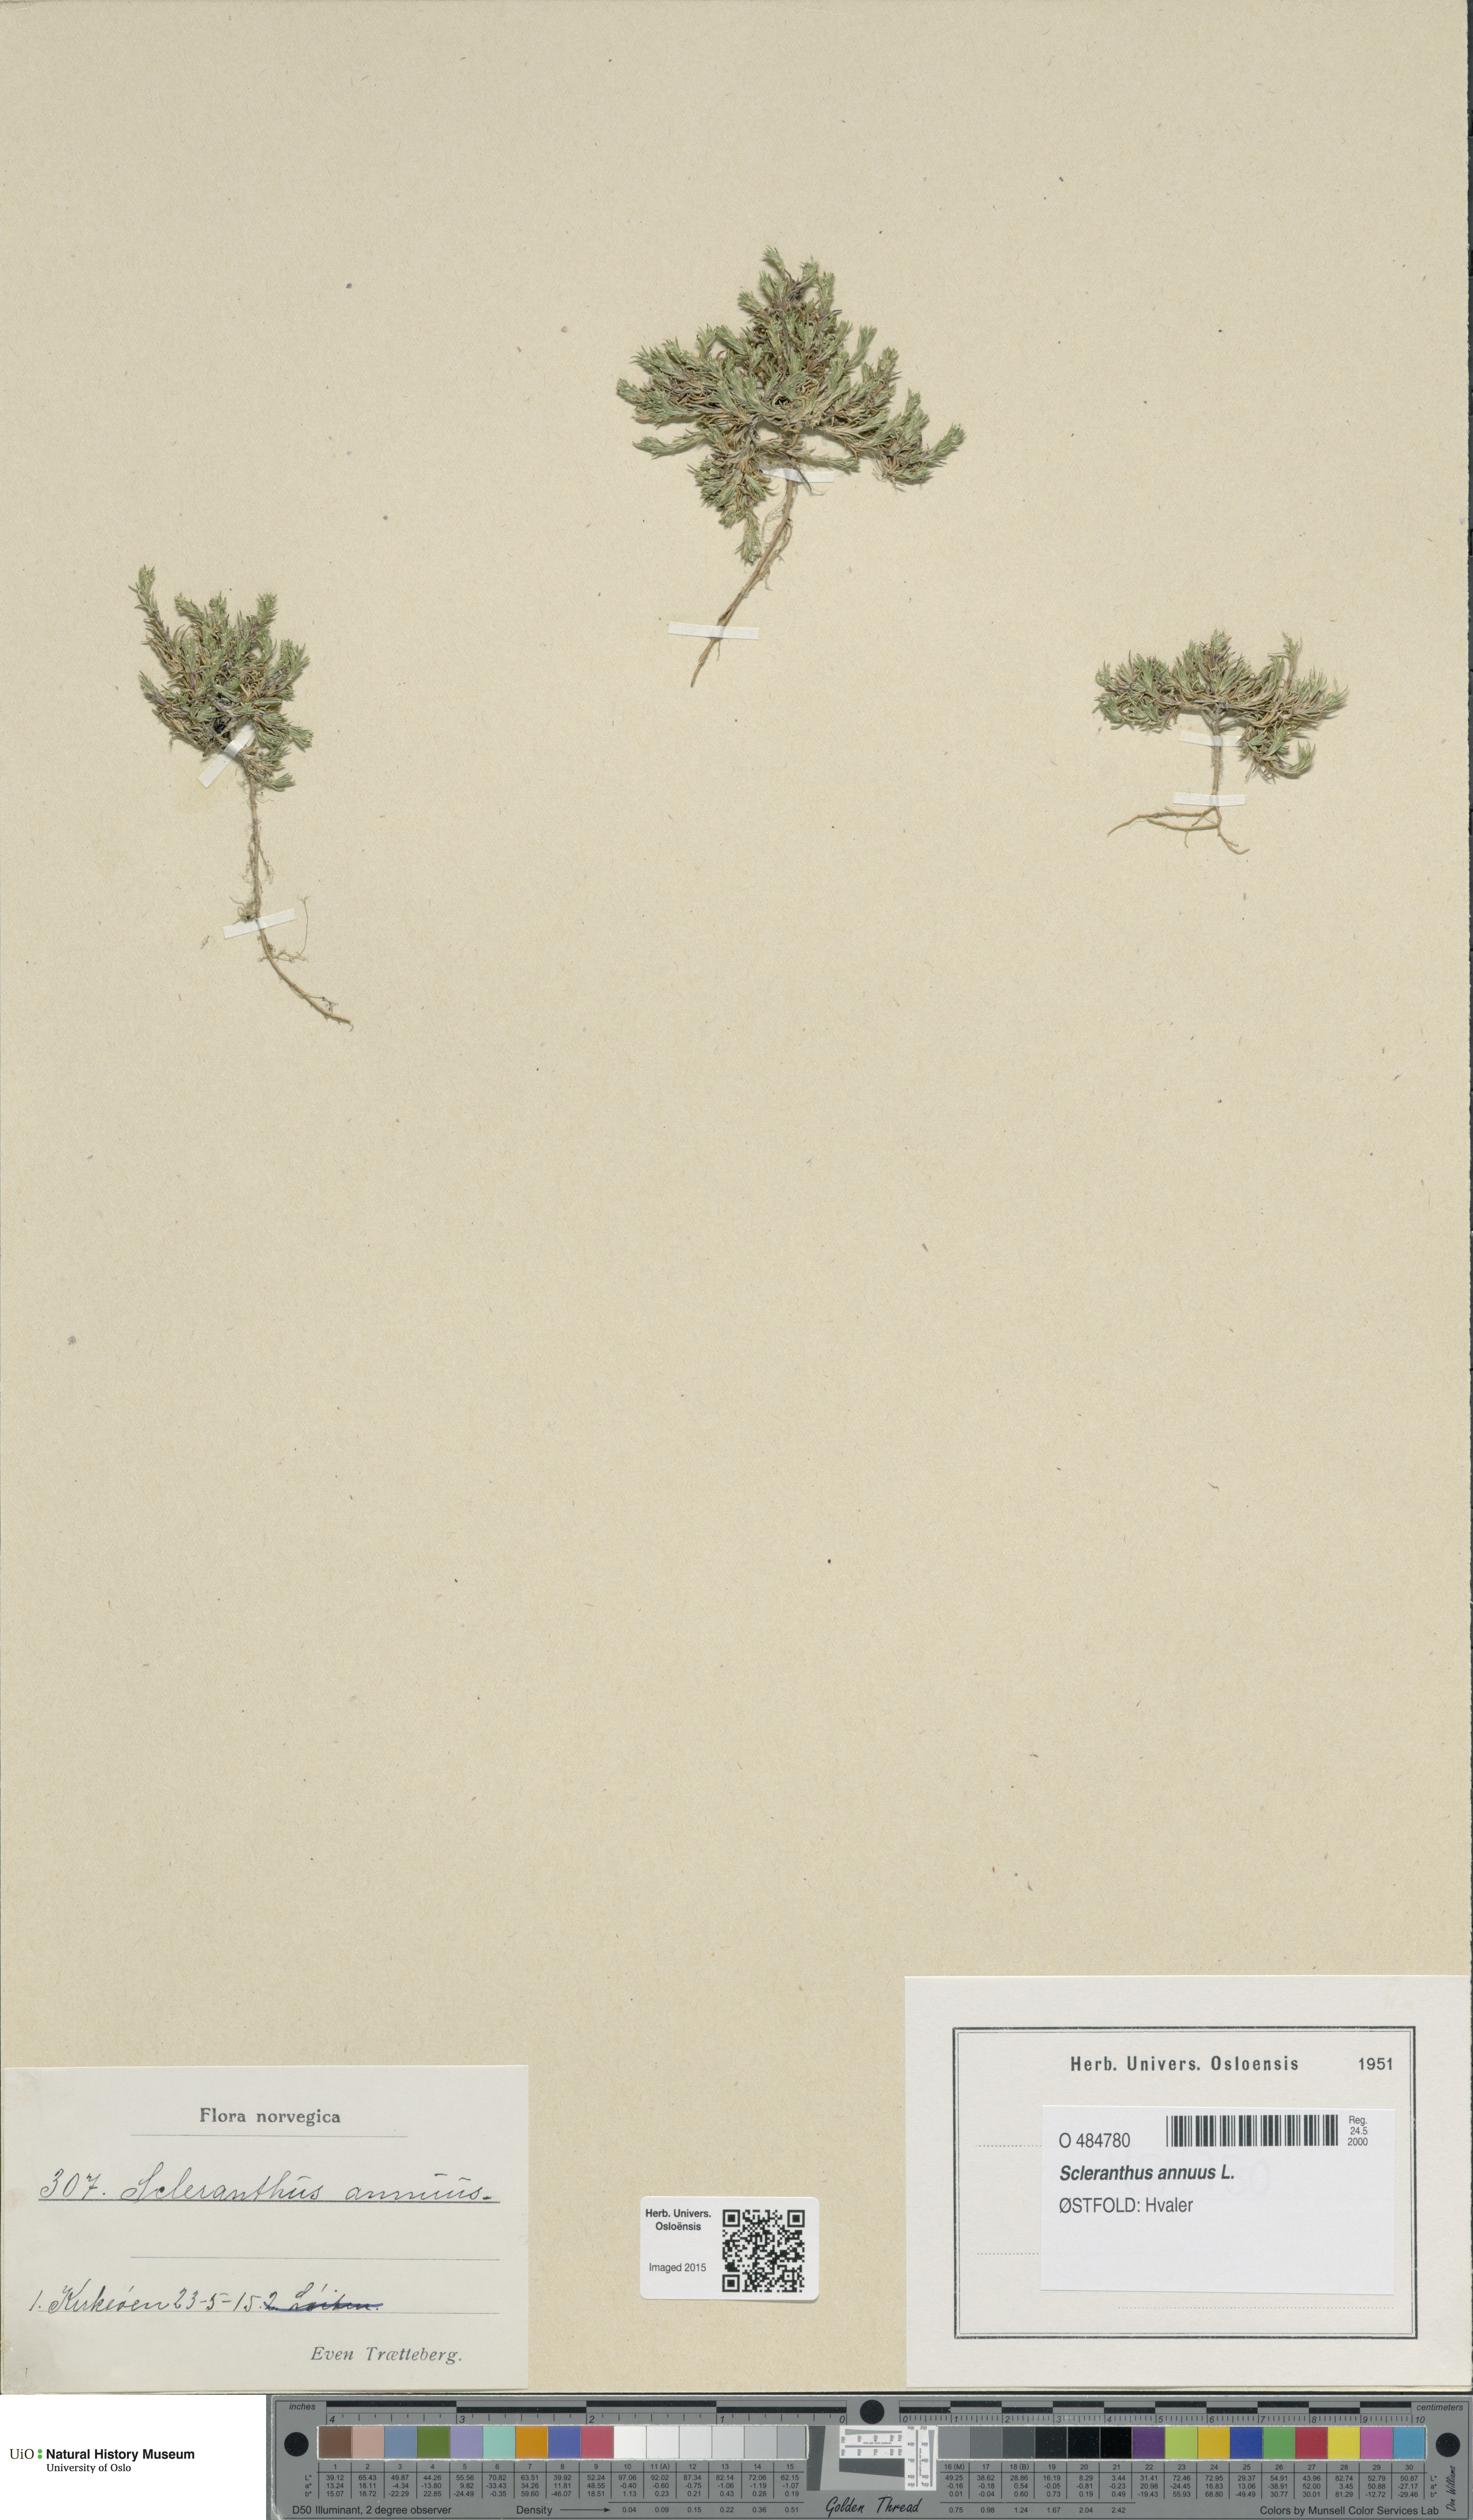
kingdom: Plantae
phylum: Tracheophyta
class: Magnoliopsida
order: Caryophyllales
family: Caryophyllaceae
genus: Scleranthus
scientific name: Scleranthus annuus
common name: Annual knawel
